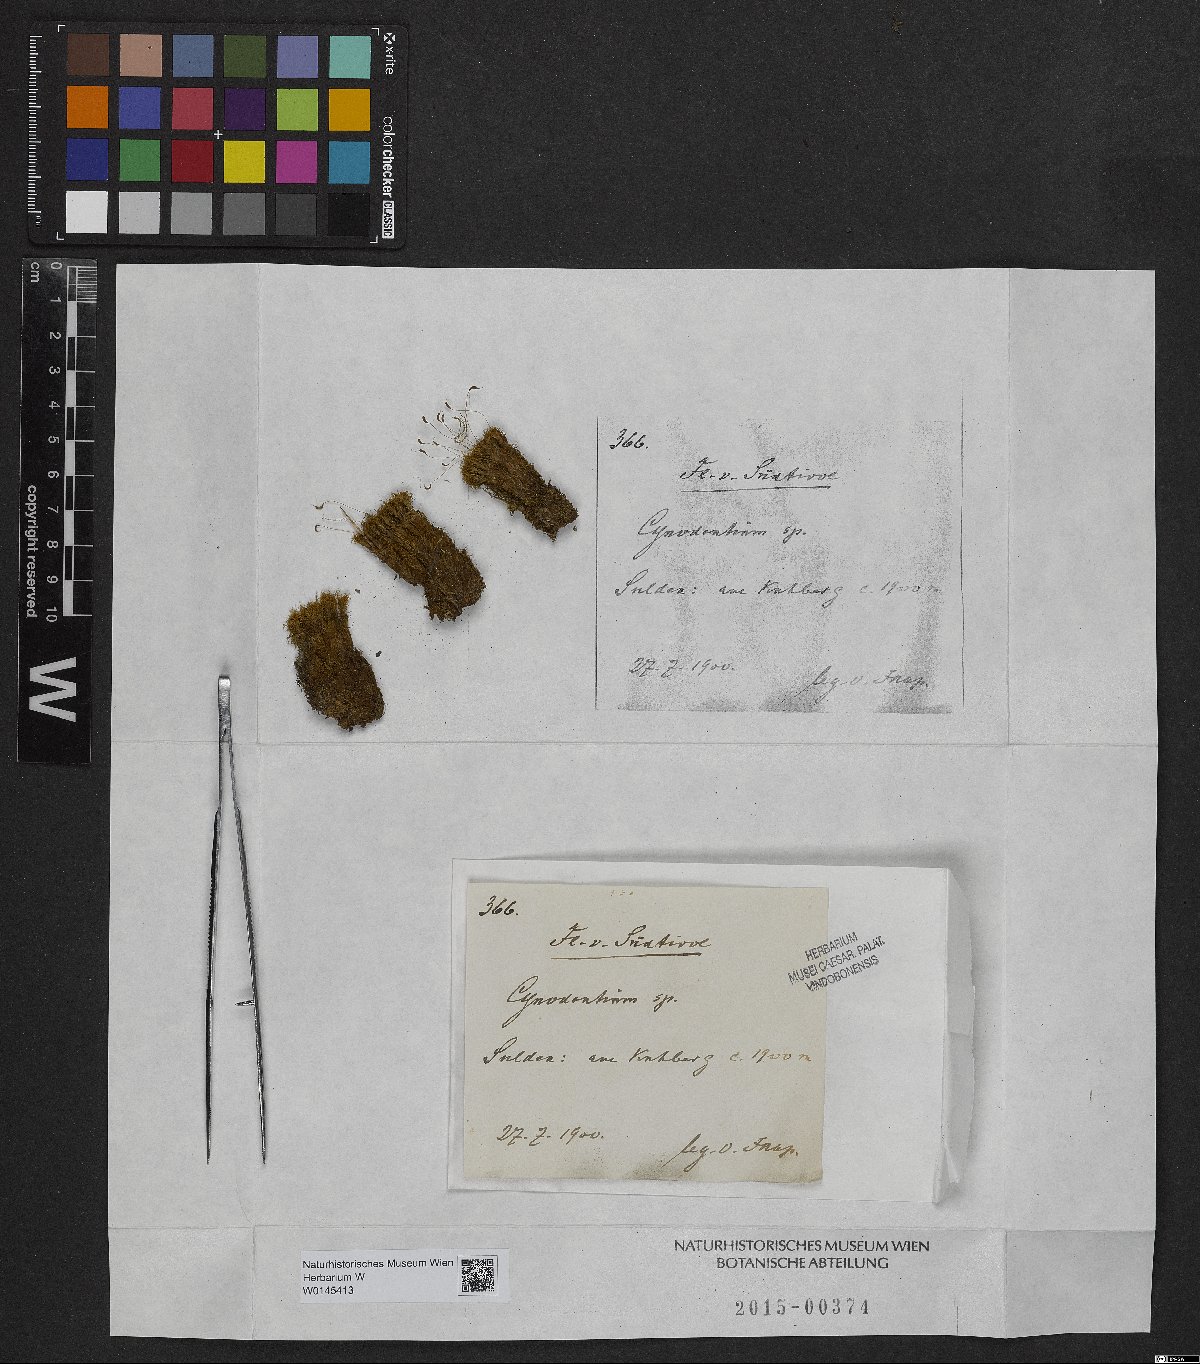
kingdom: Plantae
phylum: Bryophyta
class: Bryopsida
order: Dicranales
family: Rhabdoweisiaceae
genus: Cynodontium
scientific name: Cynodontium
